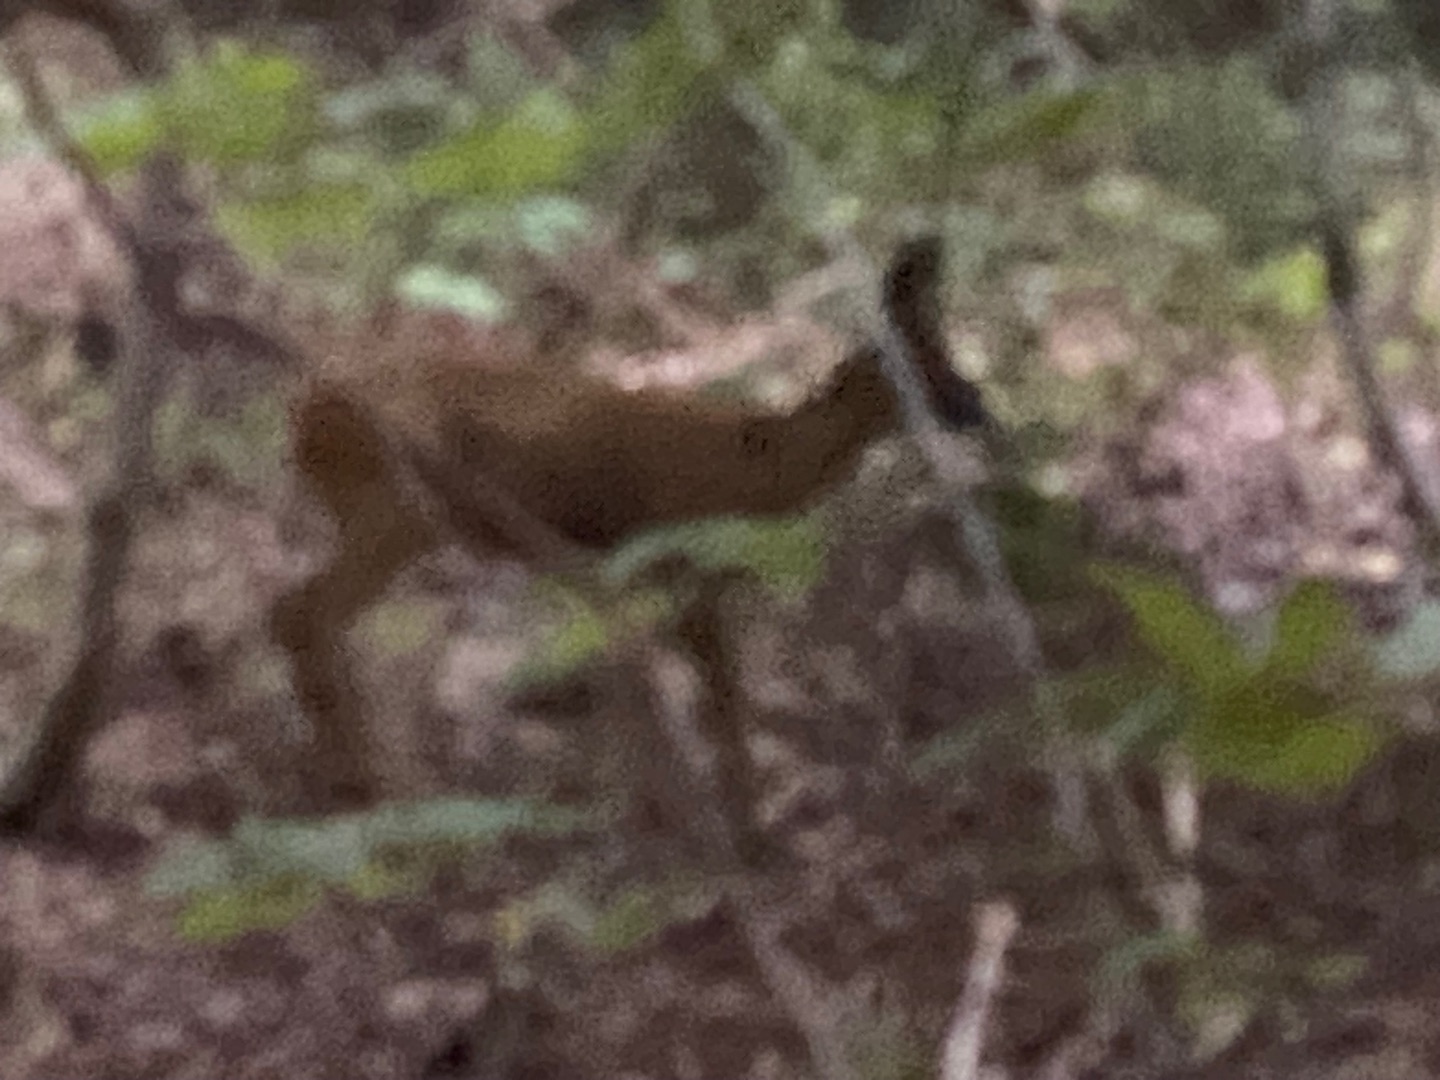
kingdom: Animalia
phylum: Chordata
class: Mammalia
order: Artiodactyla
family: Cervidae
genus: Capreolus
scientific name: Capreolus capreolus
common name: Rådyr
